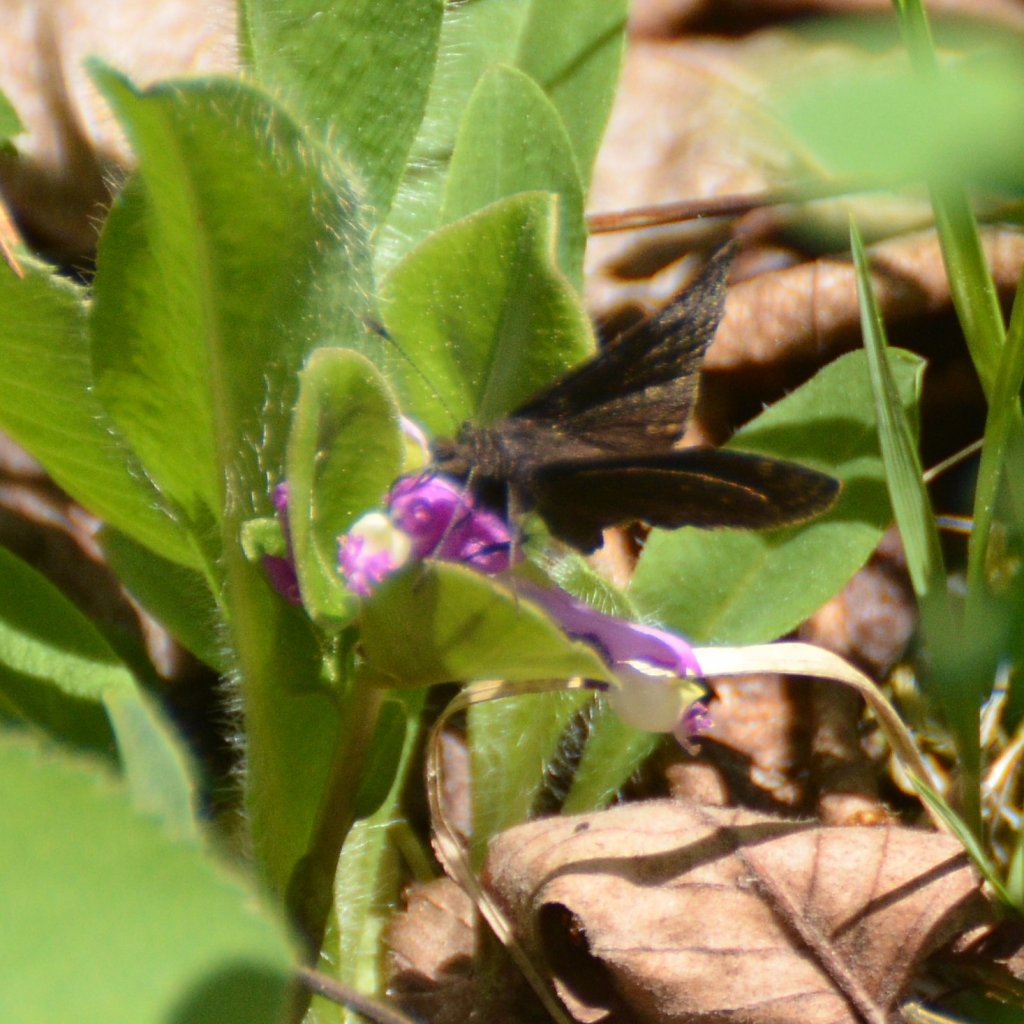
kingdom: Animalia
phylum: Arthropoda
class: Insecta
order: Lepidoptera
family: Hesperiidae
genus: Erynnis
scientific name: Erynnis icelus
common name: Dreamy Duskywing
